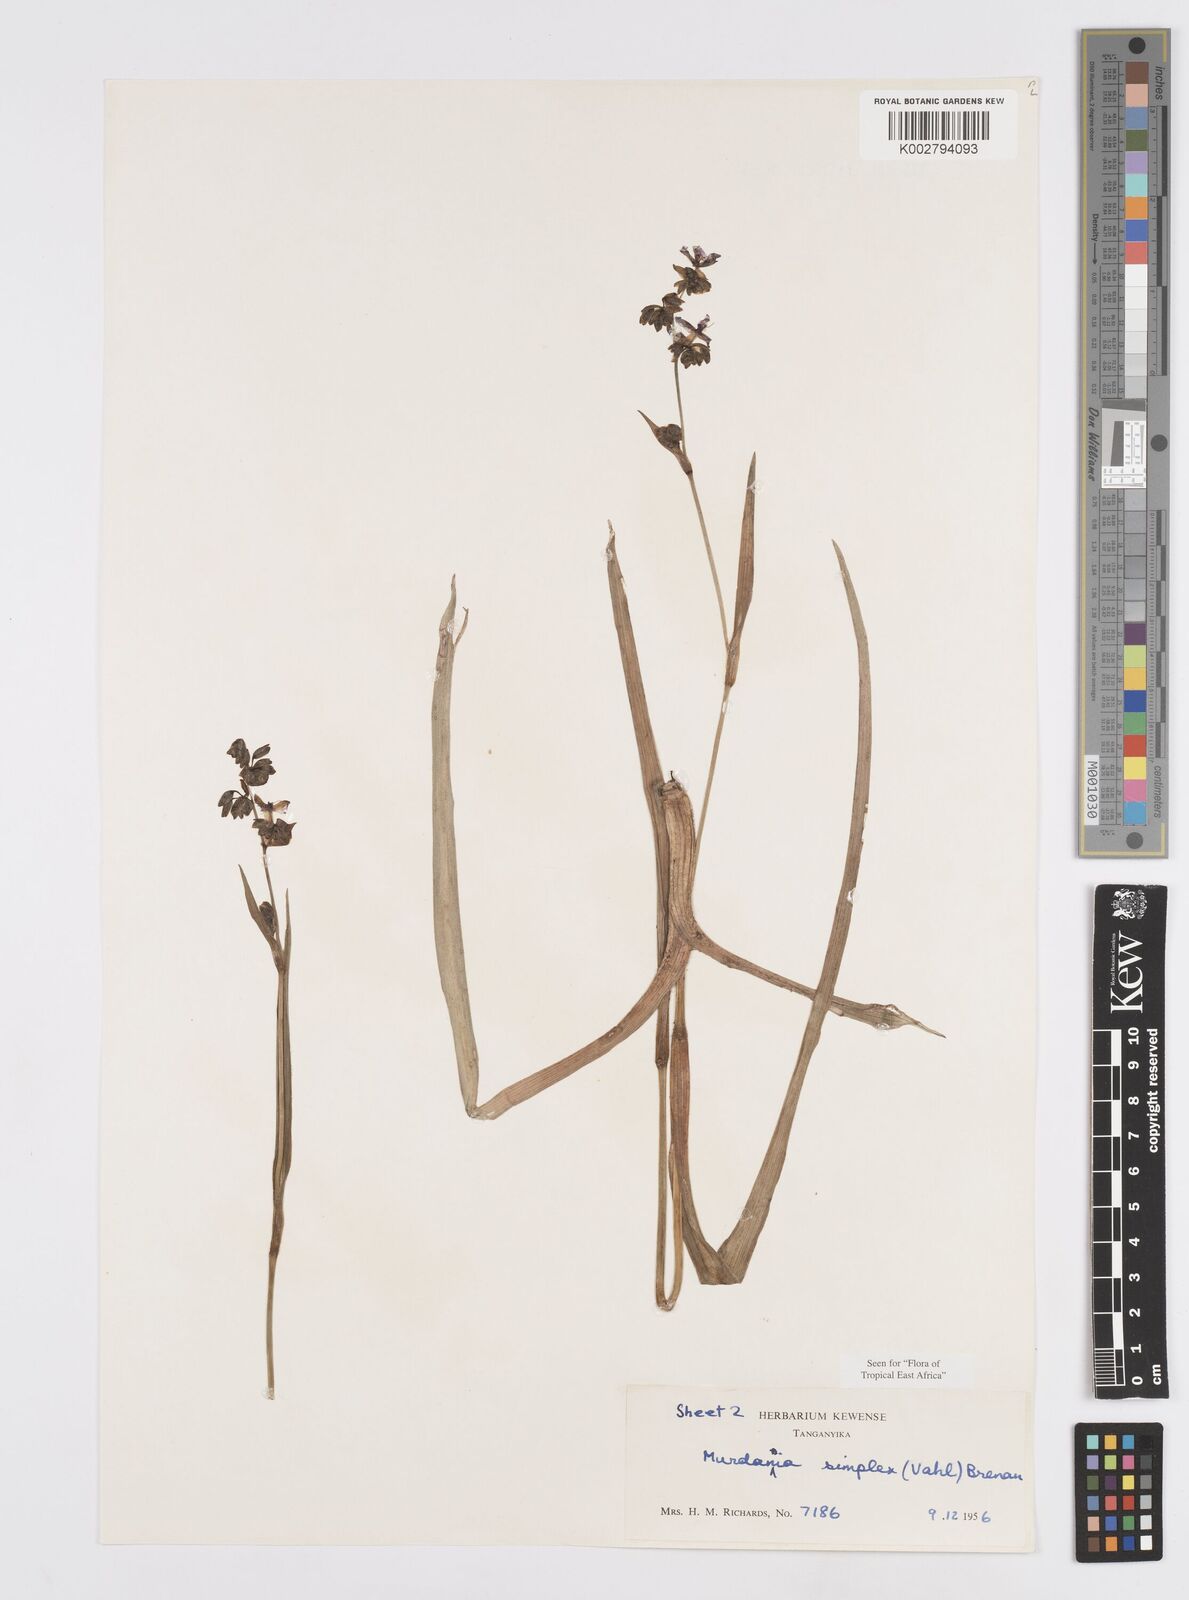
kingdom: Plantae
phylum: Tracheophyta
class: Liliopsida
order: Commelinales
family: Commelinaceae
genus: Murdannia
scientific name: Murdannia simplex
